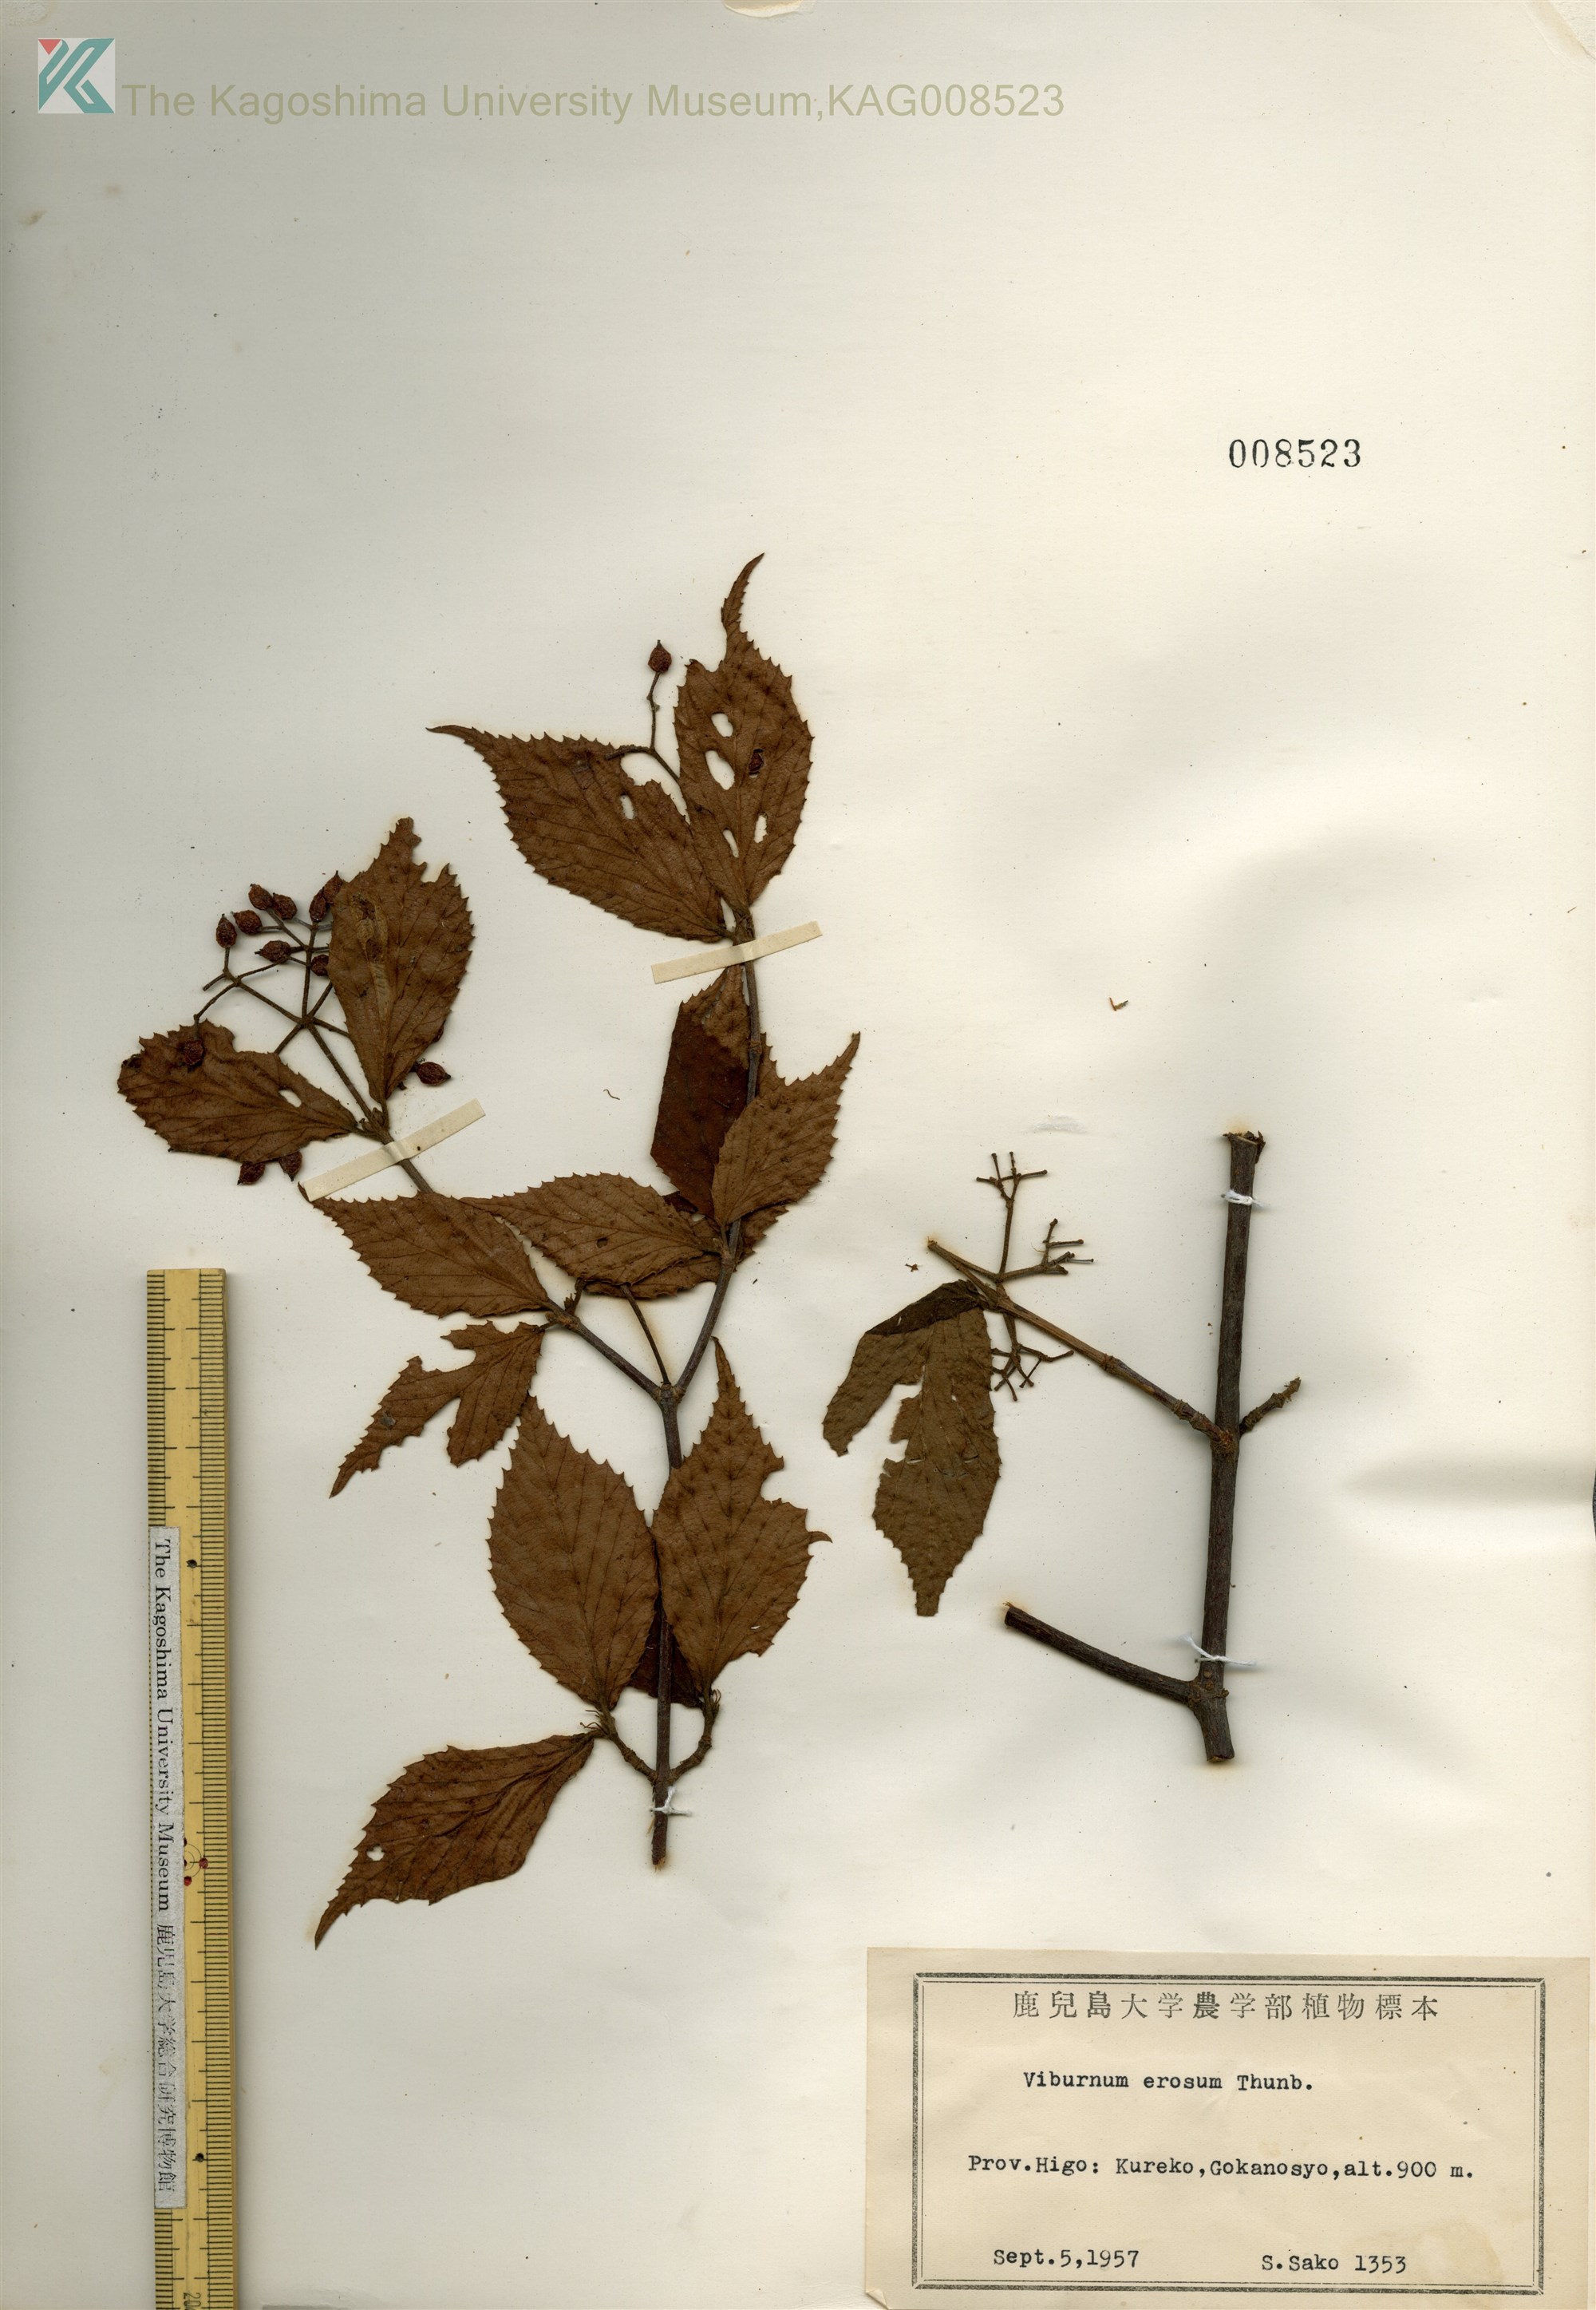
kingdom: Plantae
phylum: Tracheophyta
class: Magnoliopsida
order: Dipsacales
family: Viburnaceae
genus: Viburnum
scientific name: Viburnum erosum
